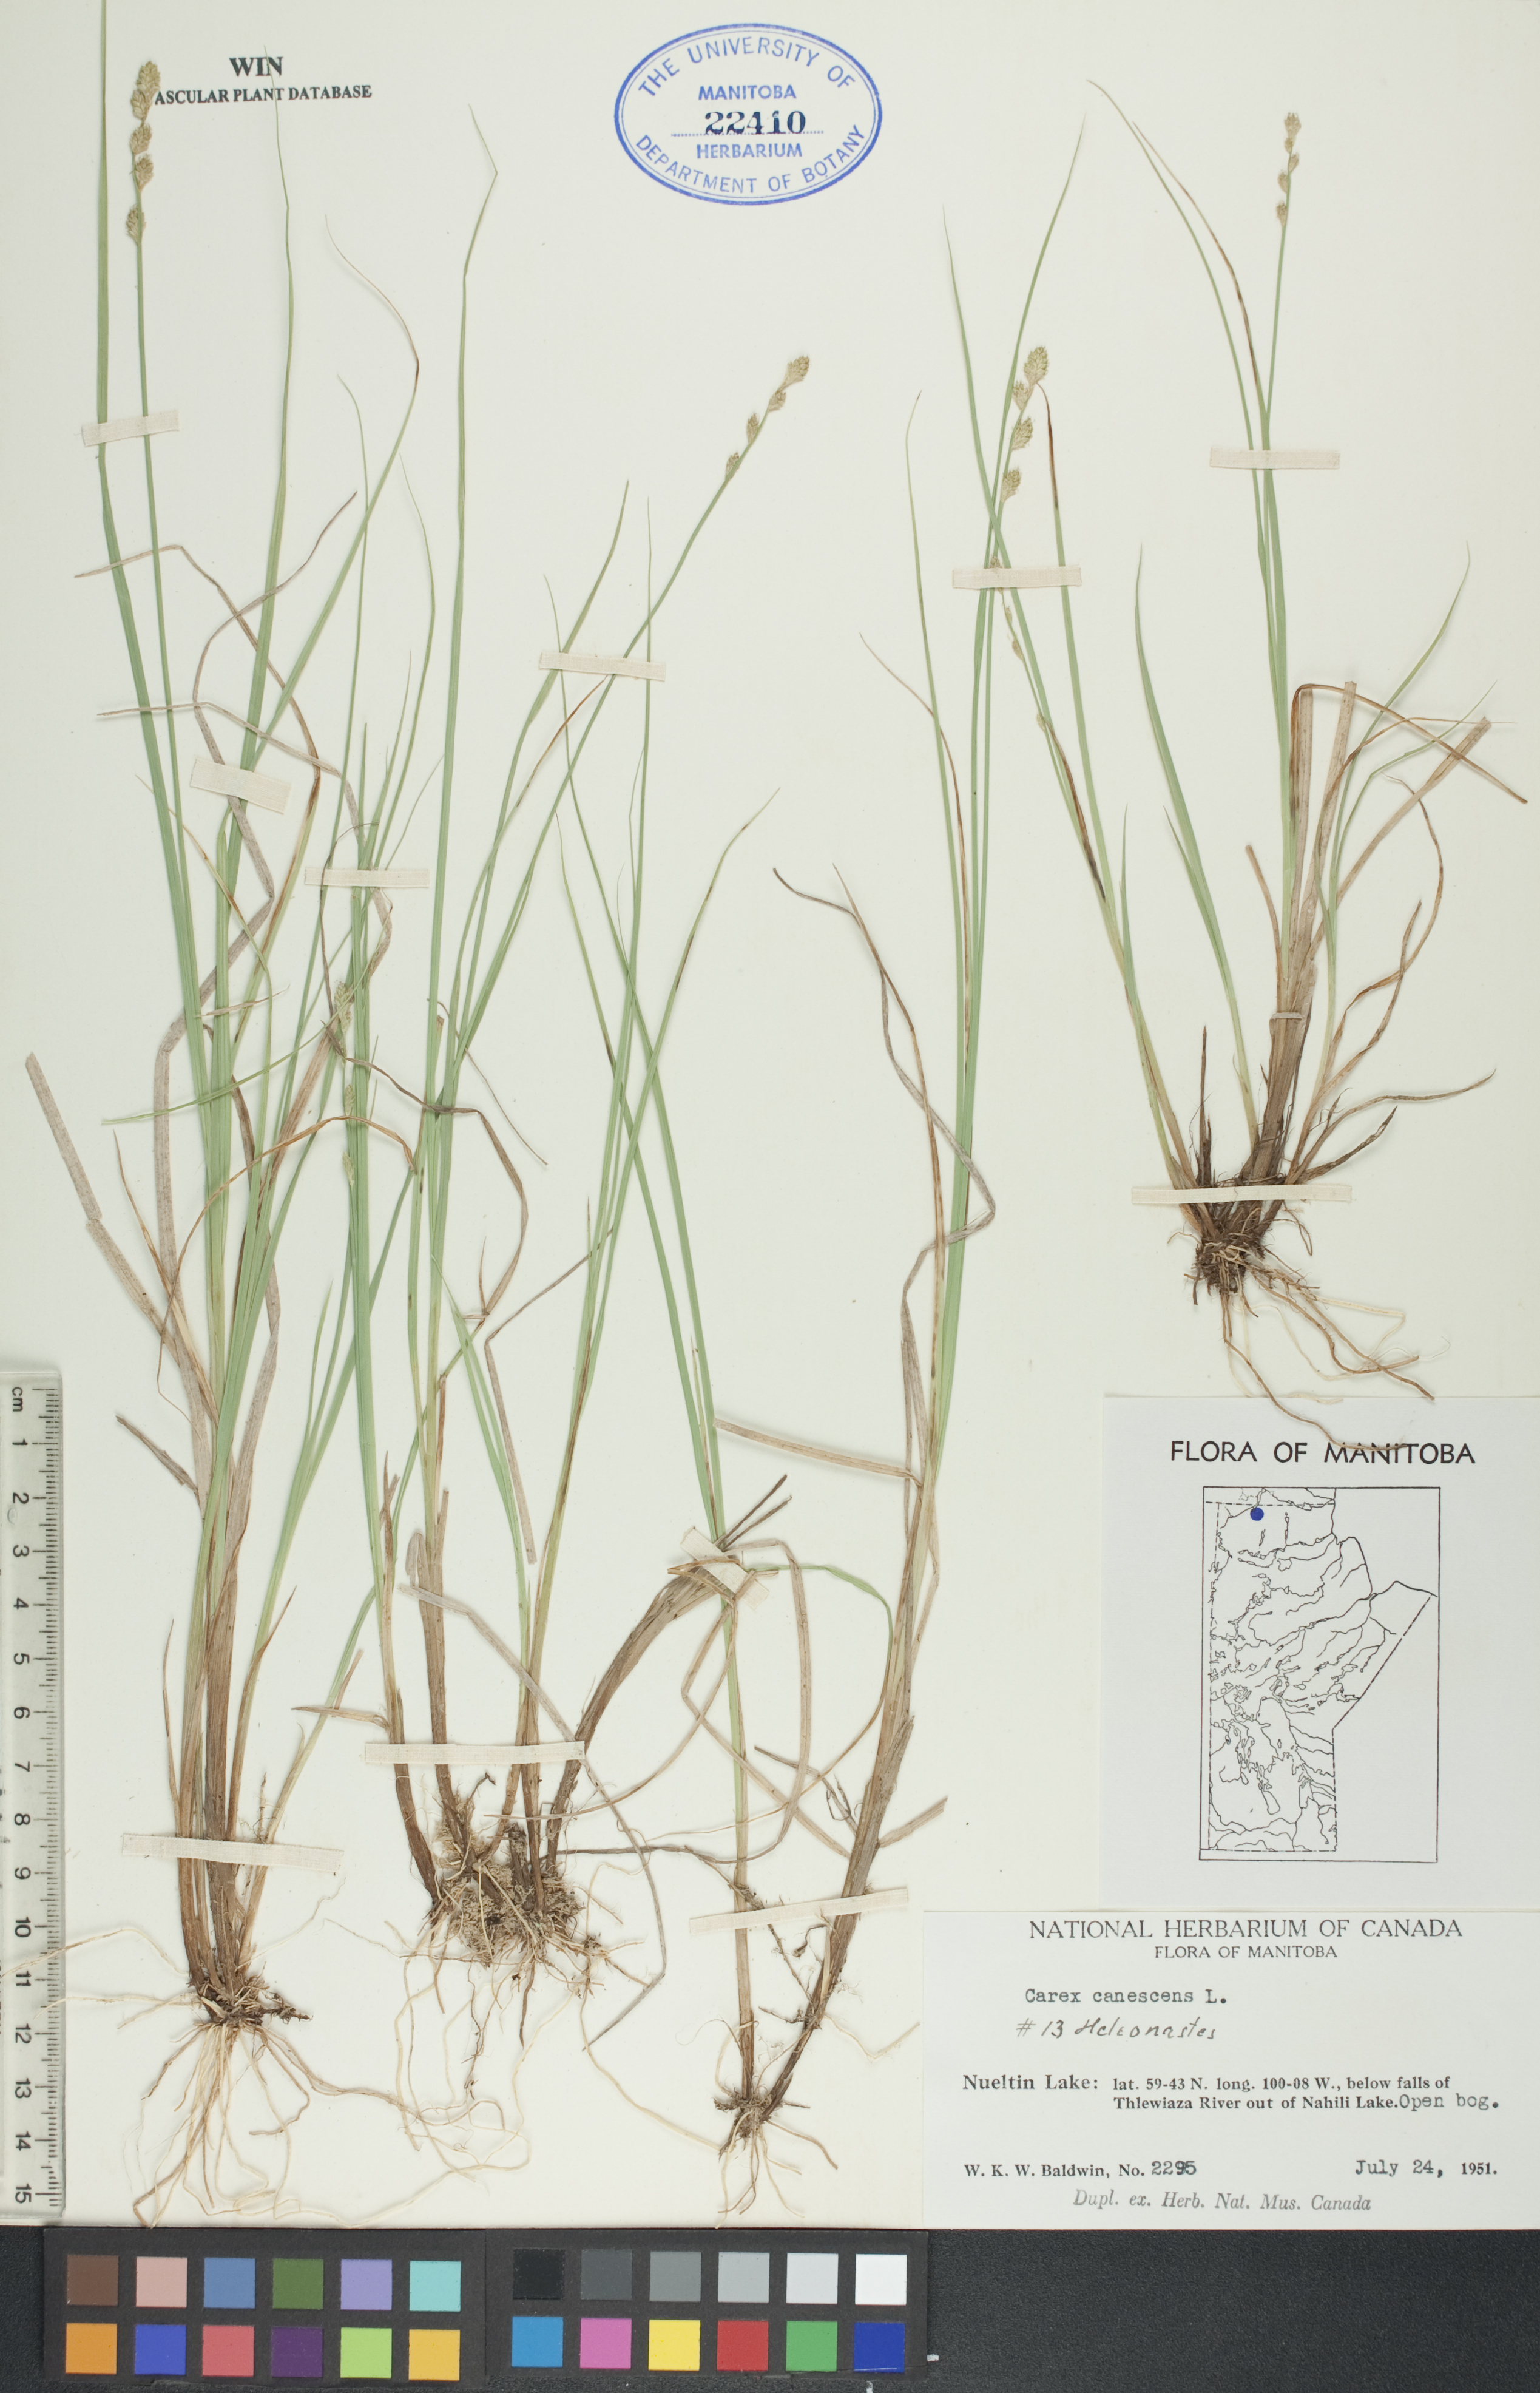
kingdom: Plantae
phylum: Tracheophyta
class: Liliopsida
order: Poales
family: Cyperaceae
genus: Carex
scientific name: Carex canescens
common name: White sedge
